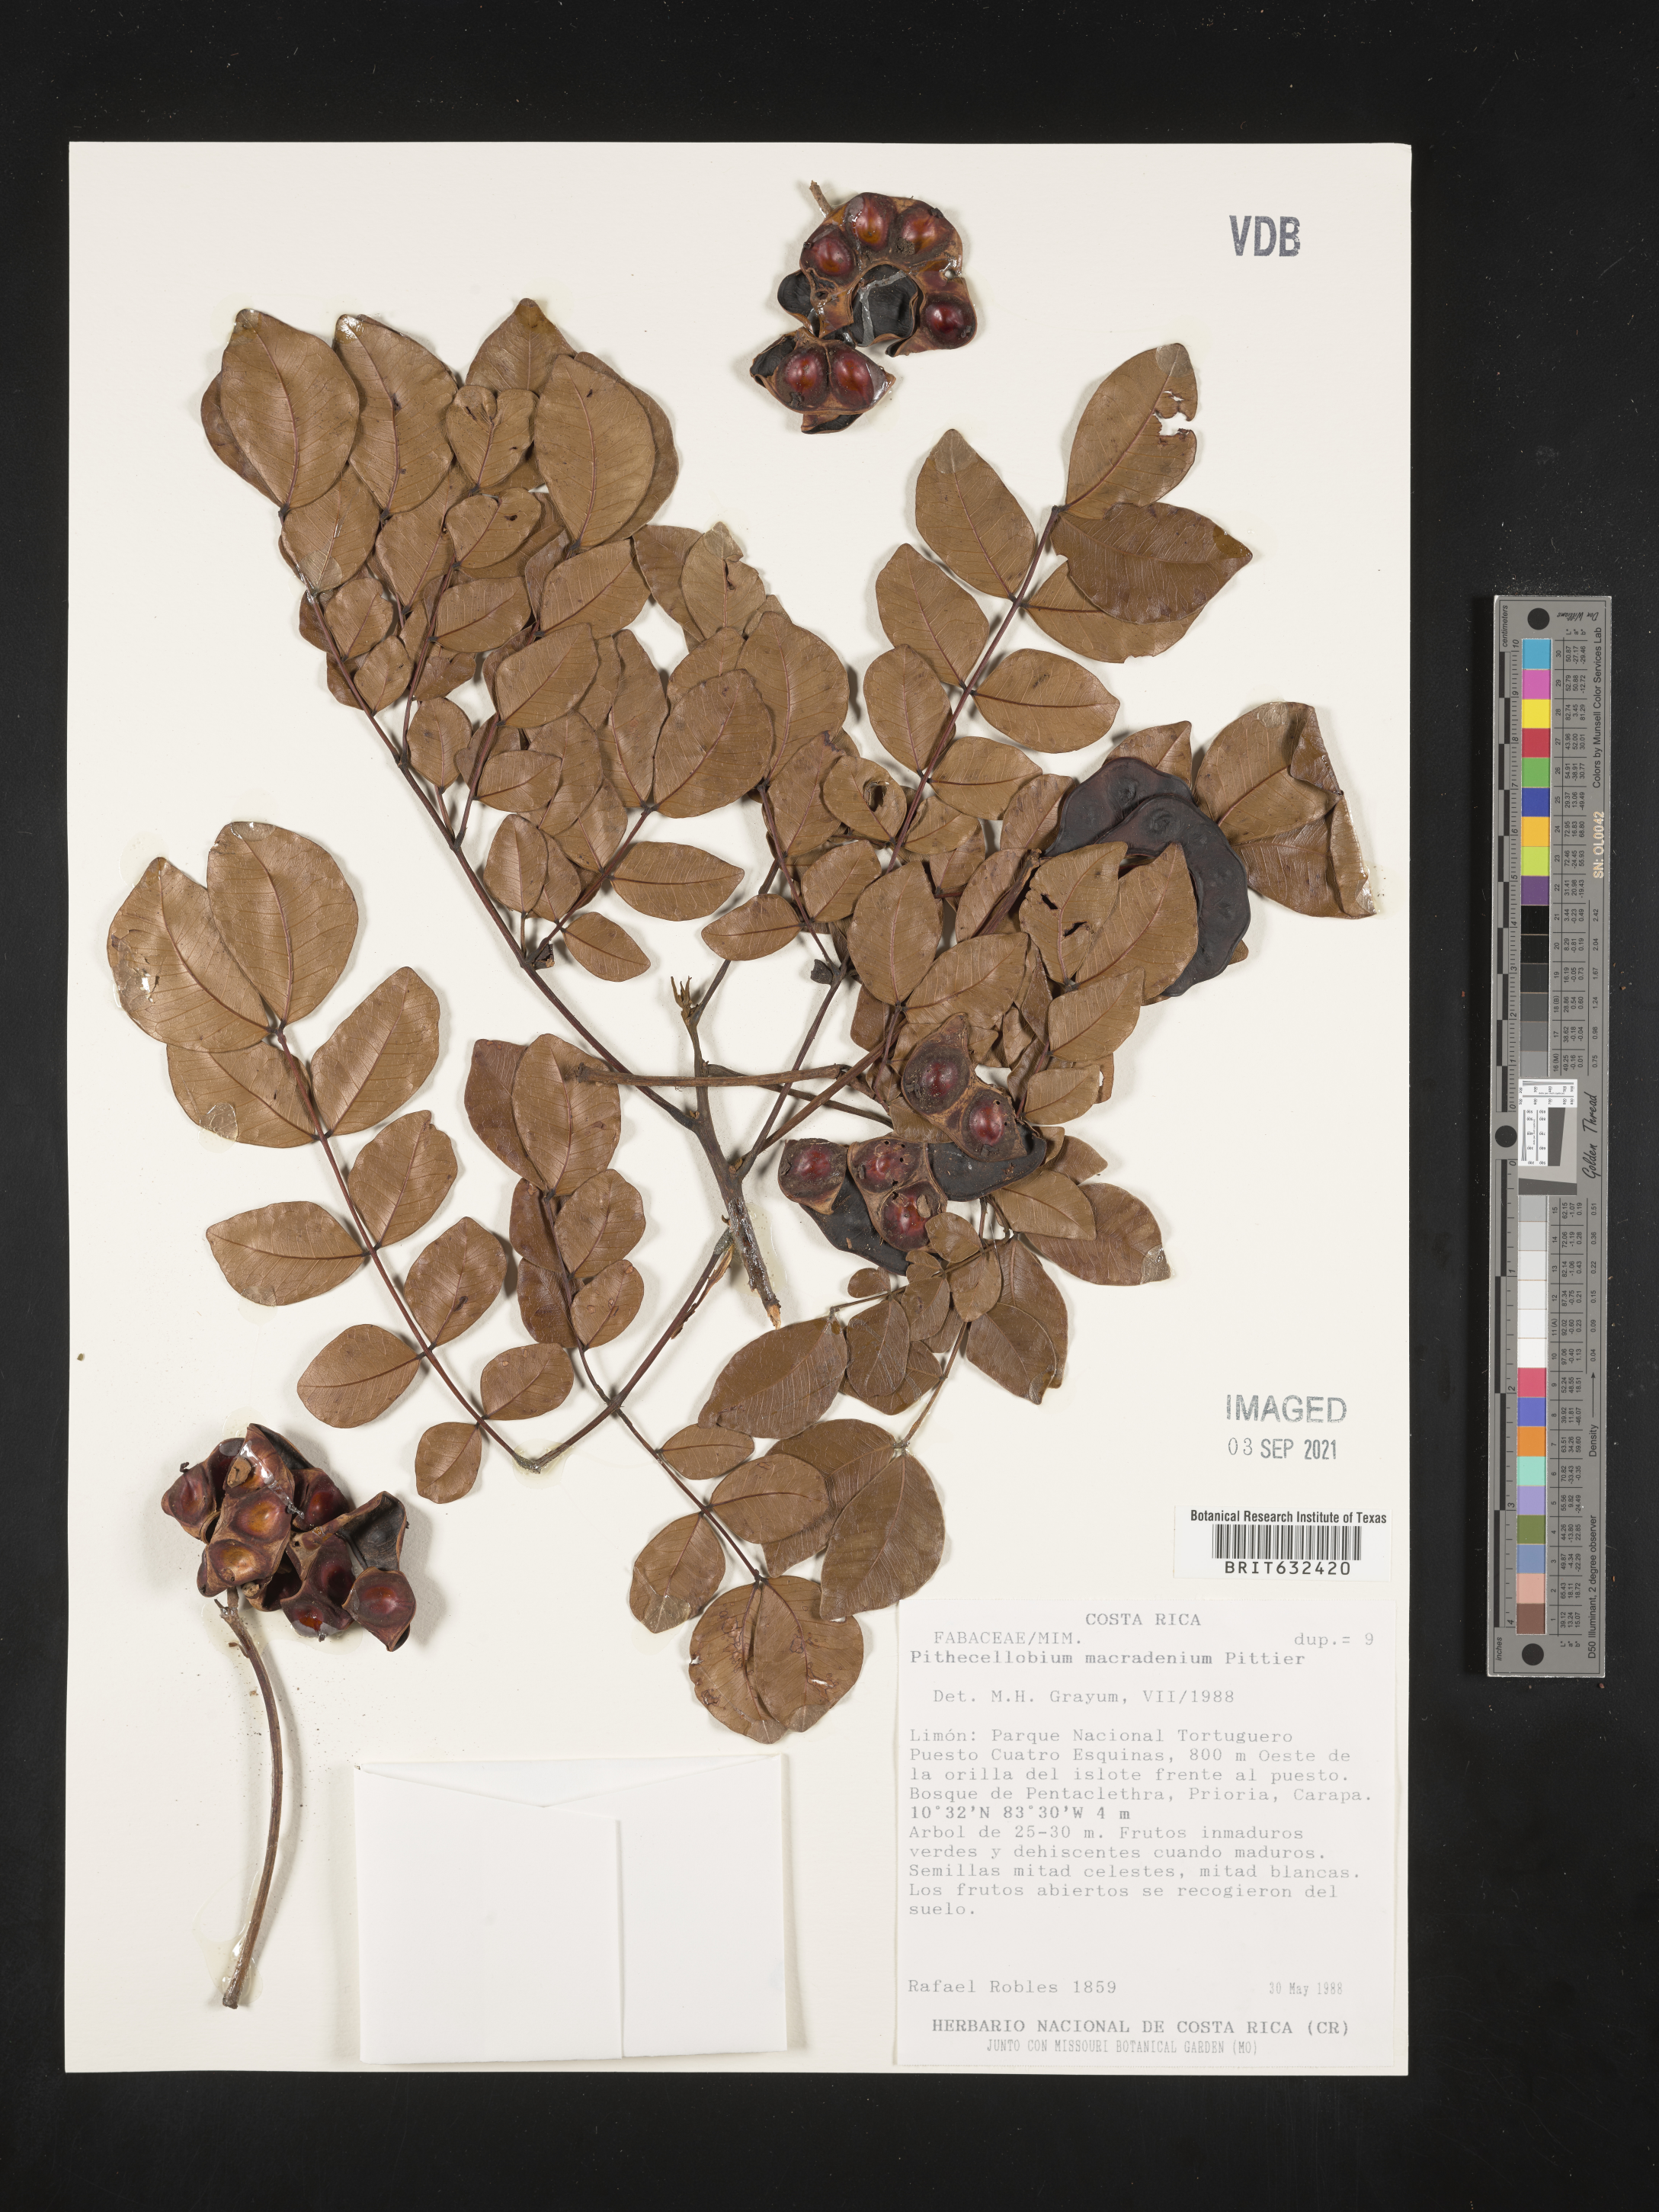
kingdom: Plantae
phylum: Tracheophyta
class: Magnoliopsida
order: Fabales
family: Fabaceae
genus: Pithecellobium
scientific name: Pithecellobium
